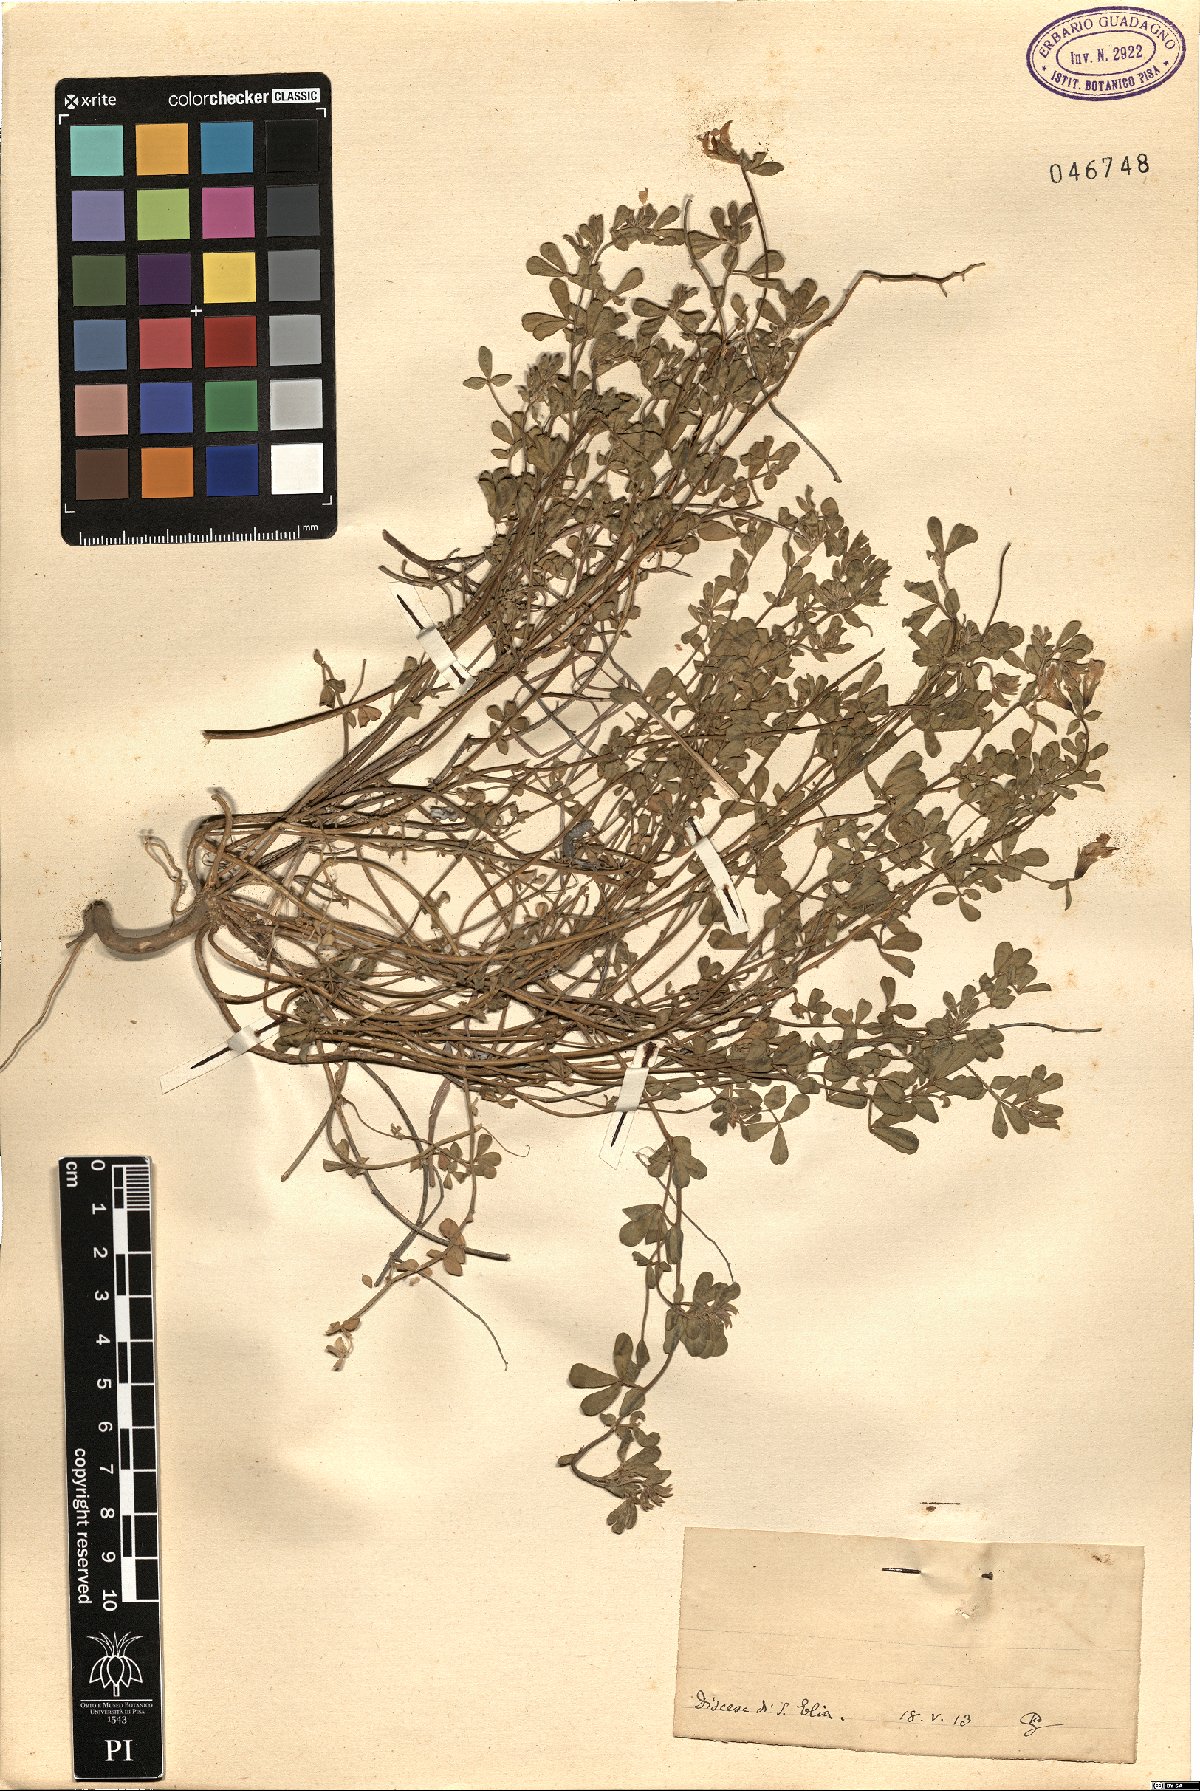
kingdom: Plantae
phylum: Tracheophyta
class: Magnoliopsida
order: Fabales
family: Fabaceae
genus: Lotus
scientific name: Lotus
